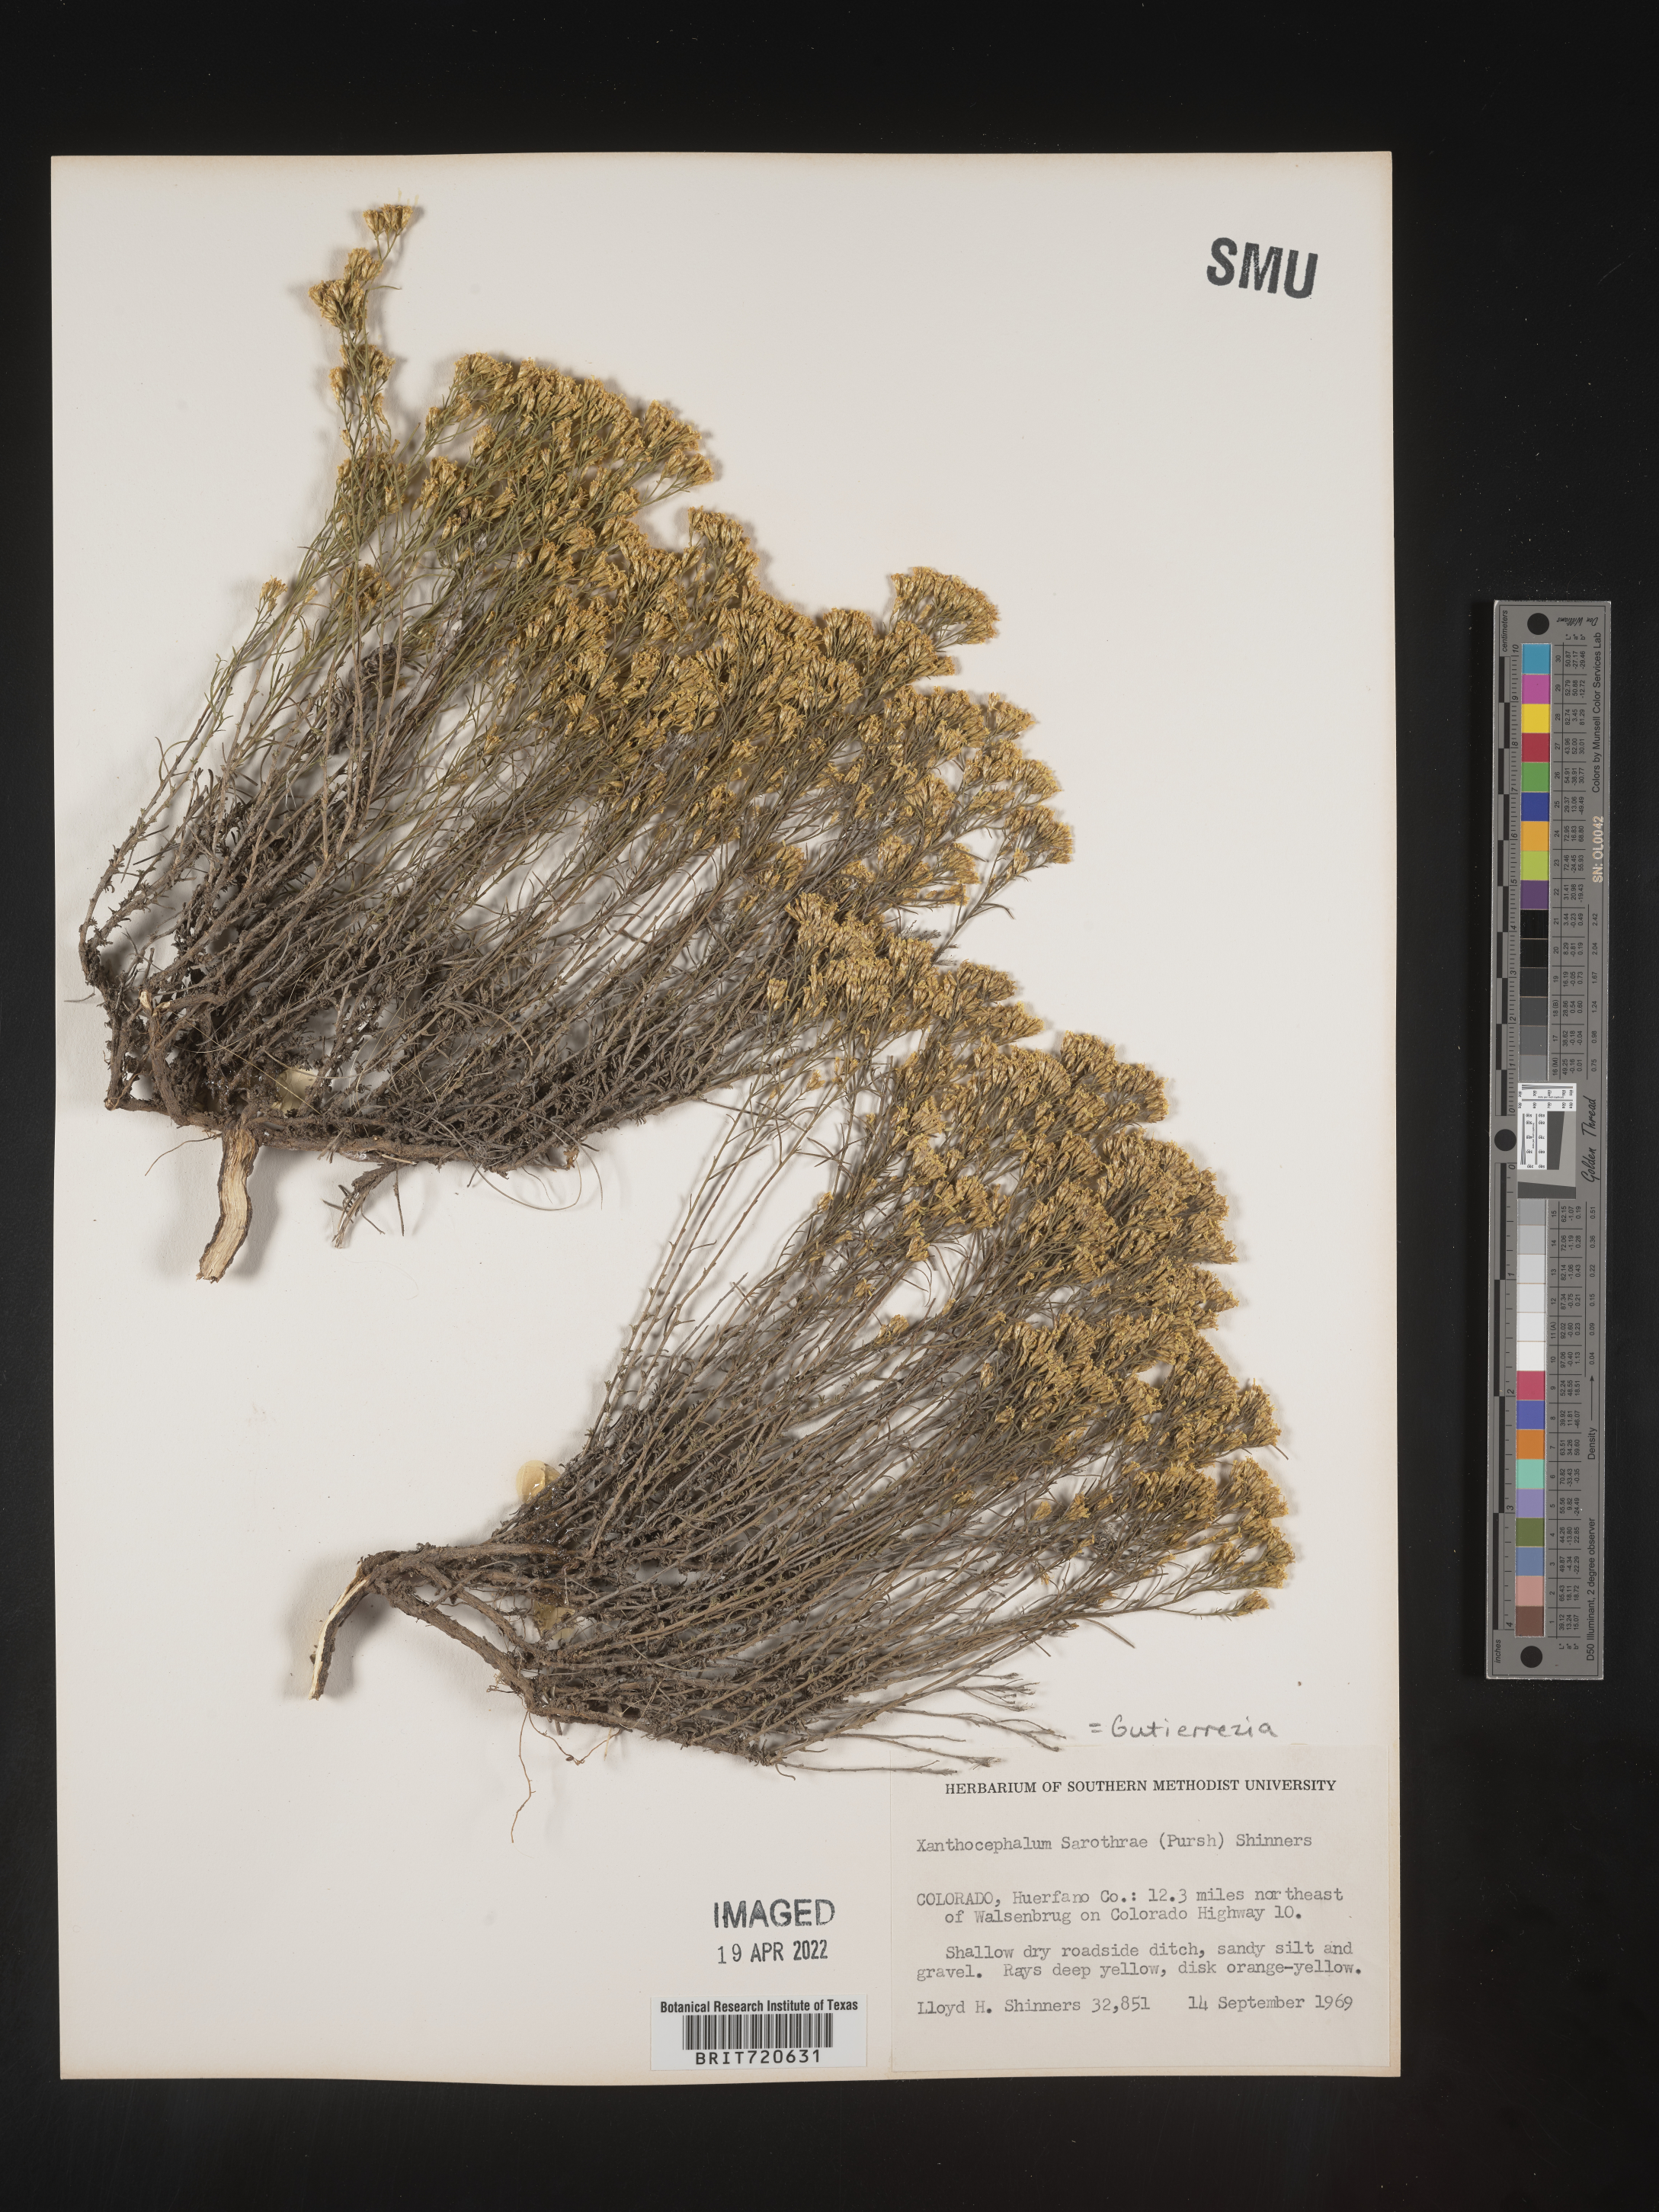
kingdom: Plantae
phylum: Tracheophyta
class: Magnoliopsida
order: Asterales
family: Asteraceae
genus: Gutierrezia
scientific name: Gutierrezia sarothrae
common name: Broom snakeweed
